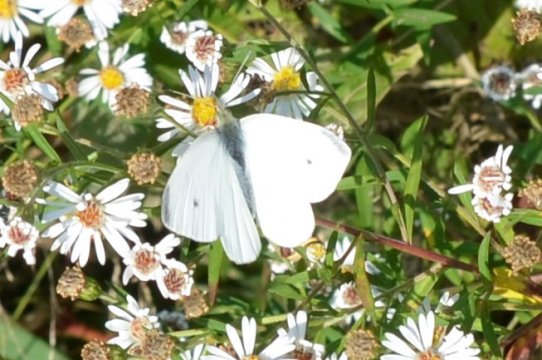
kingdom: Animalia
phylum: Arthropoda
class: Insecta
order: Lepidoptera
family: Pieridae
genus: Pieris
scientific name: Pieris rapae
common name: Cabbage White
